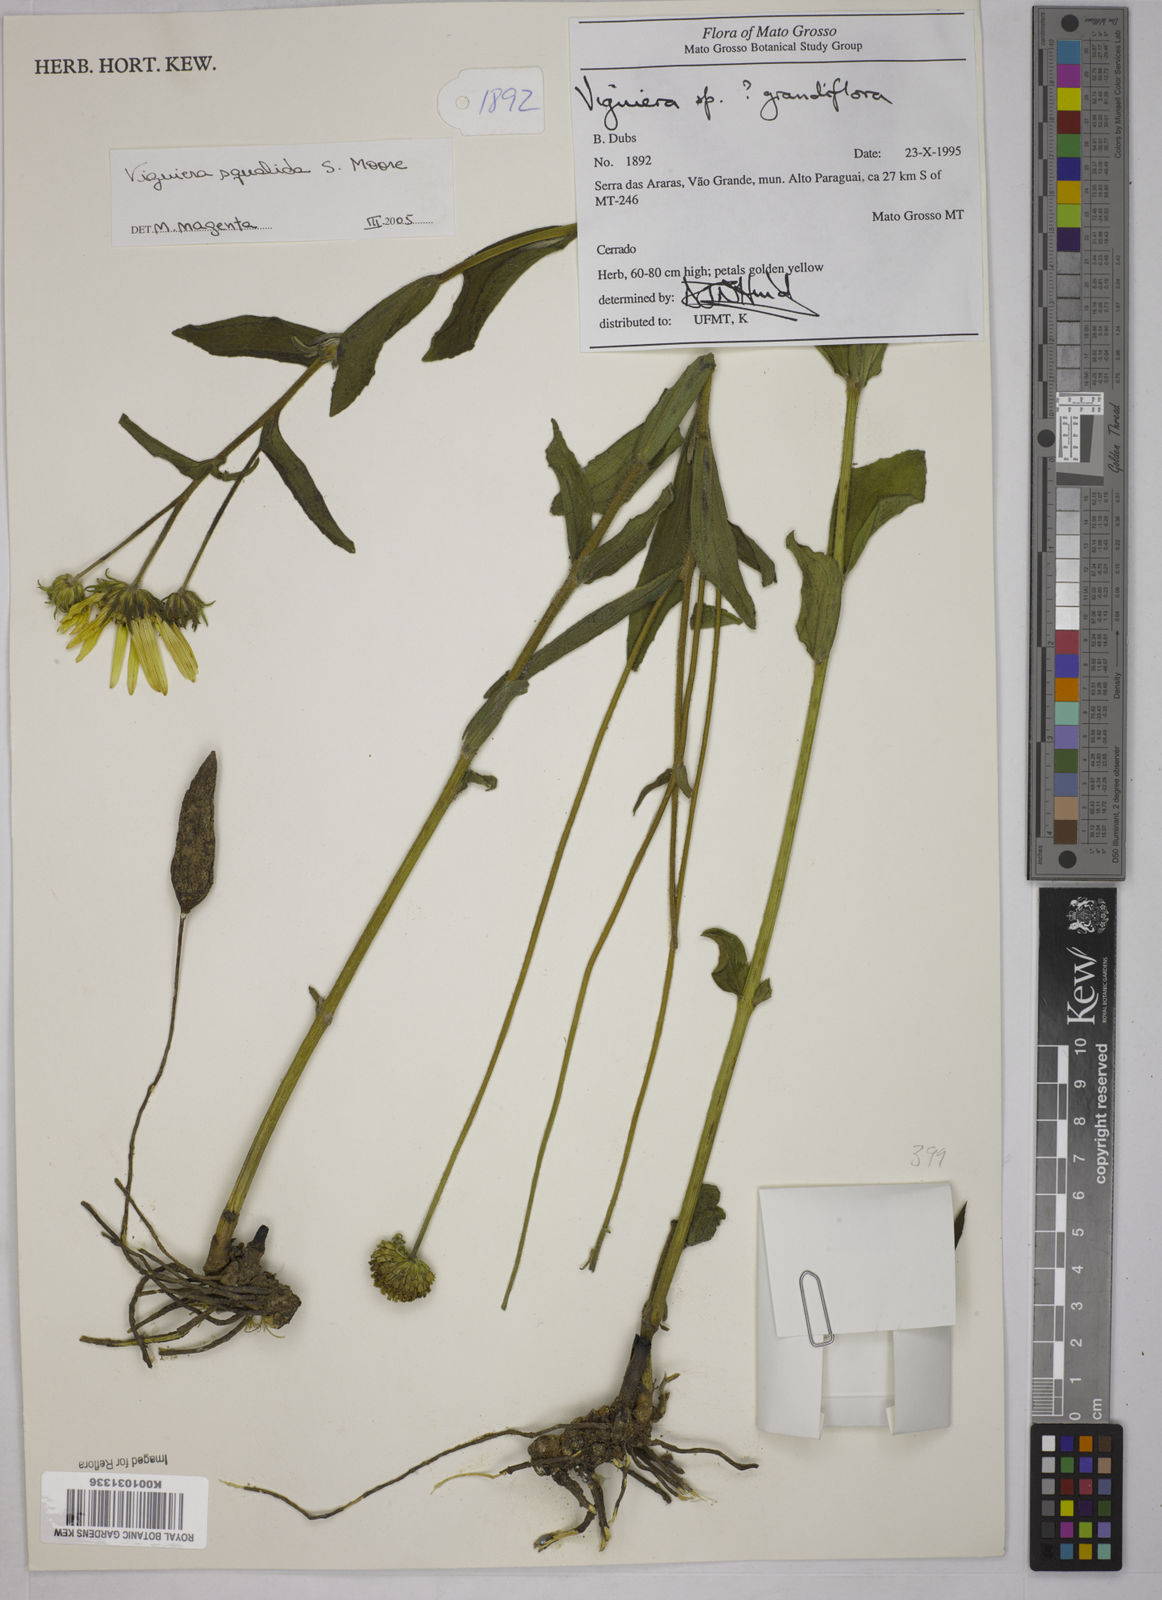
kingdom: Plantae
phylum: Tracheophyta
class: Magnoliopsida
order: Asterales
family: Asteraceae
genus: Aldama
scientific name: Aldama squalida
